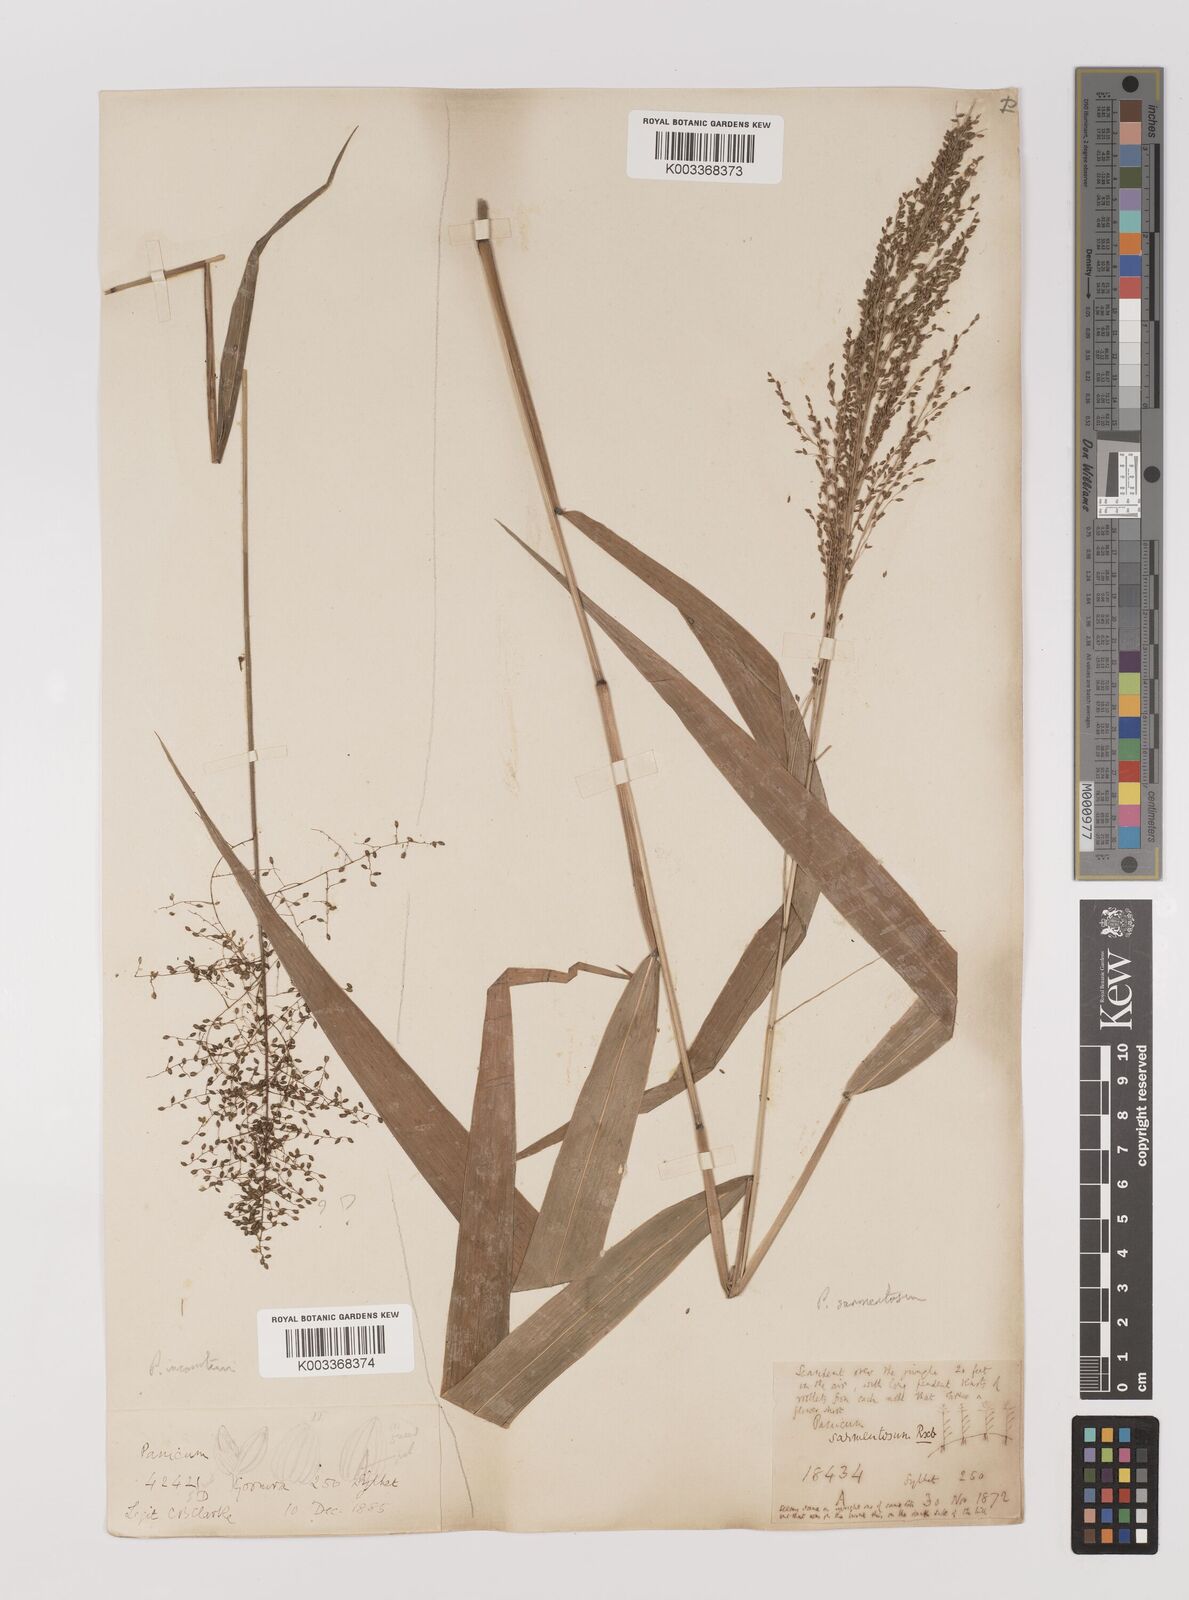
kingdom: Plantae
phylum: Tracheophyta
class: Liliopsida
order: Poales
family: Poaceae
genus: Panicum
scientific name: Panicum sarmentosum
